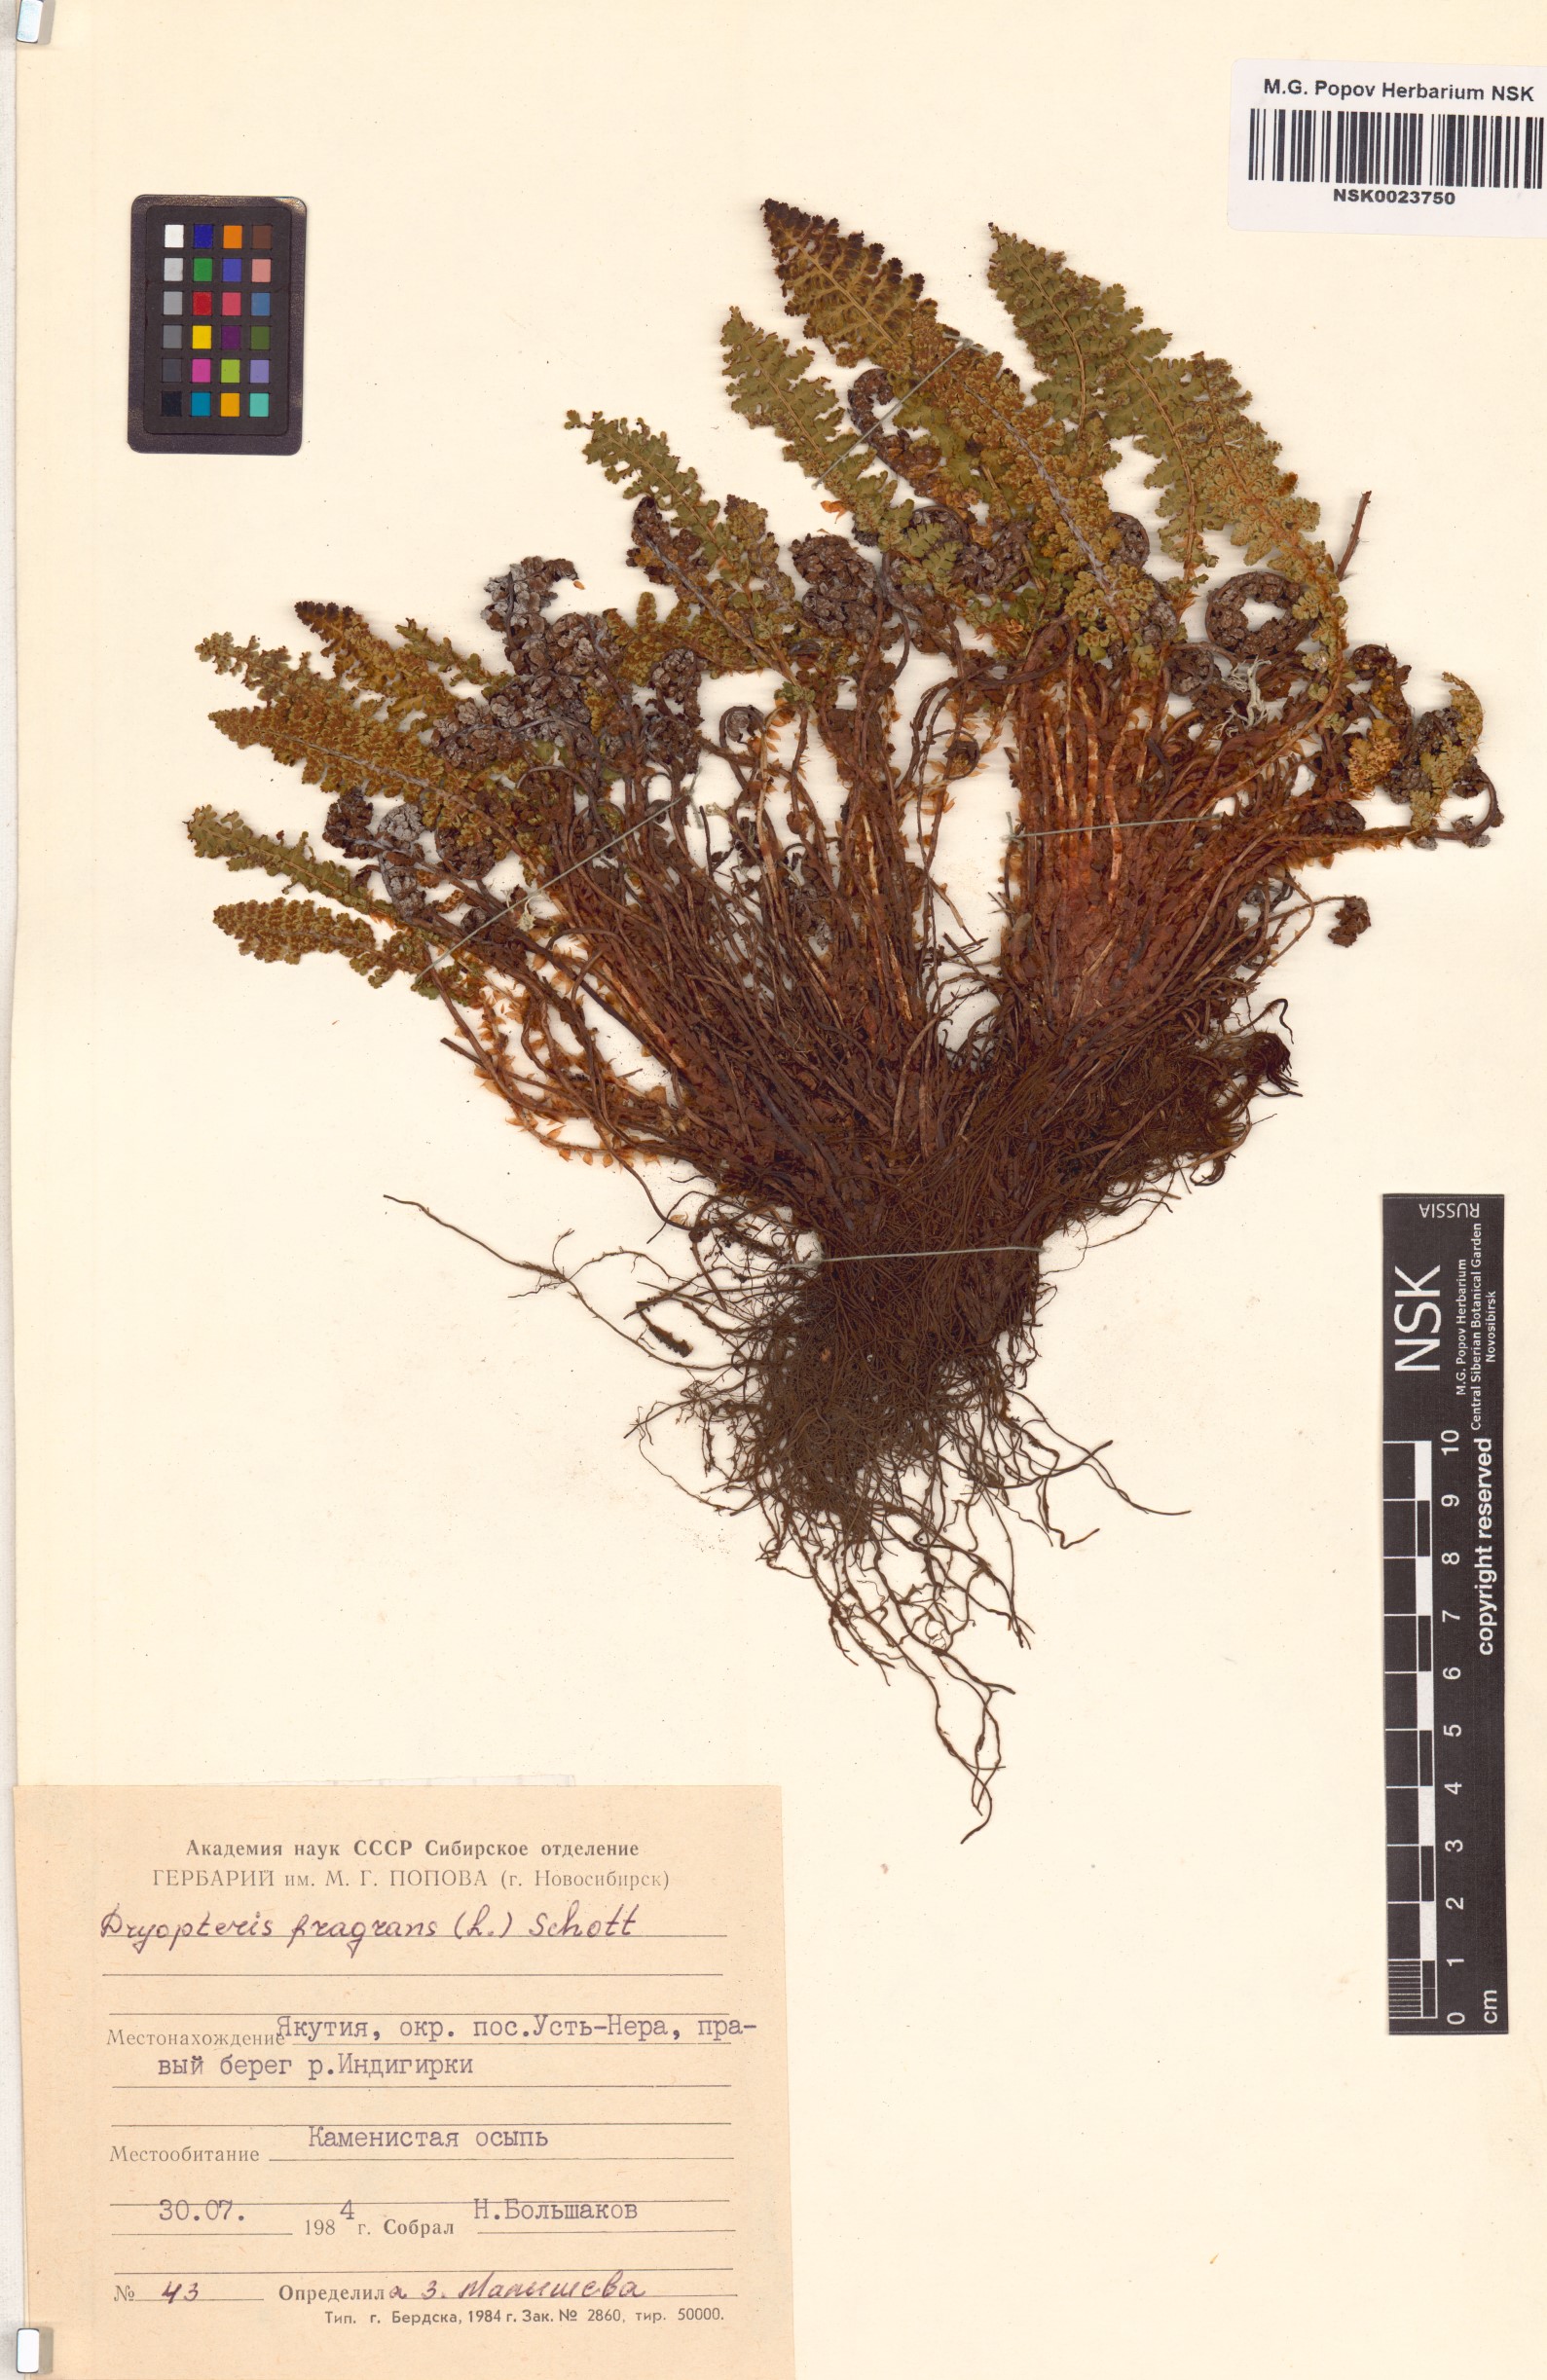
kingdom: Plantae
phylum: Tracheophyta
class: Polypodiopsida
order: Polypodiales
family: Dryopteridaceae
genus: Dryopteris
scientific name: Dryopteris fragrans
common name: Fragrant wood fern
